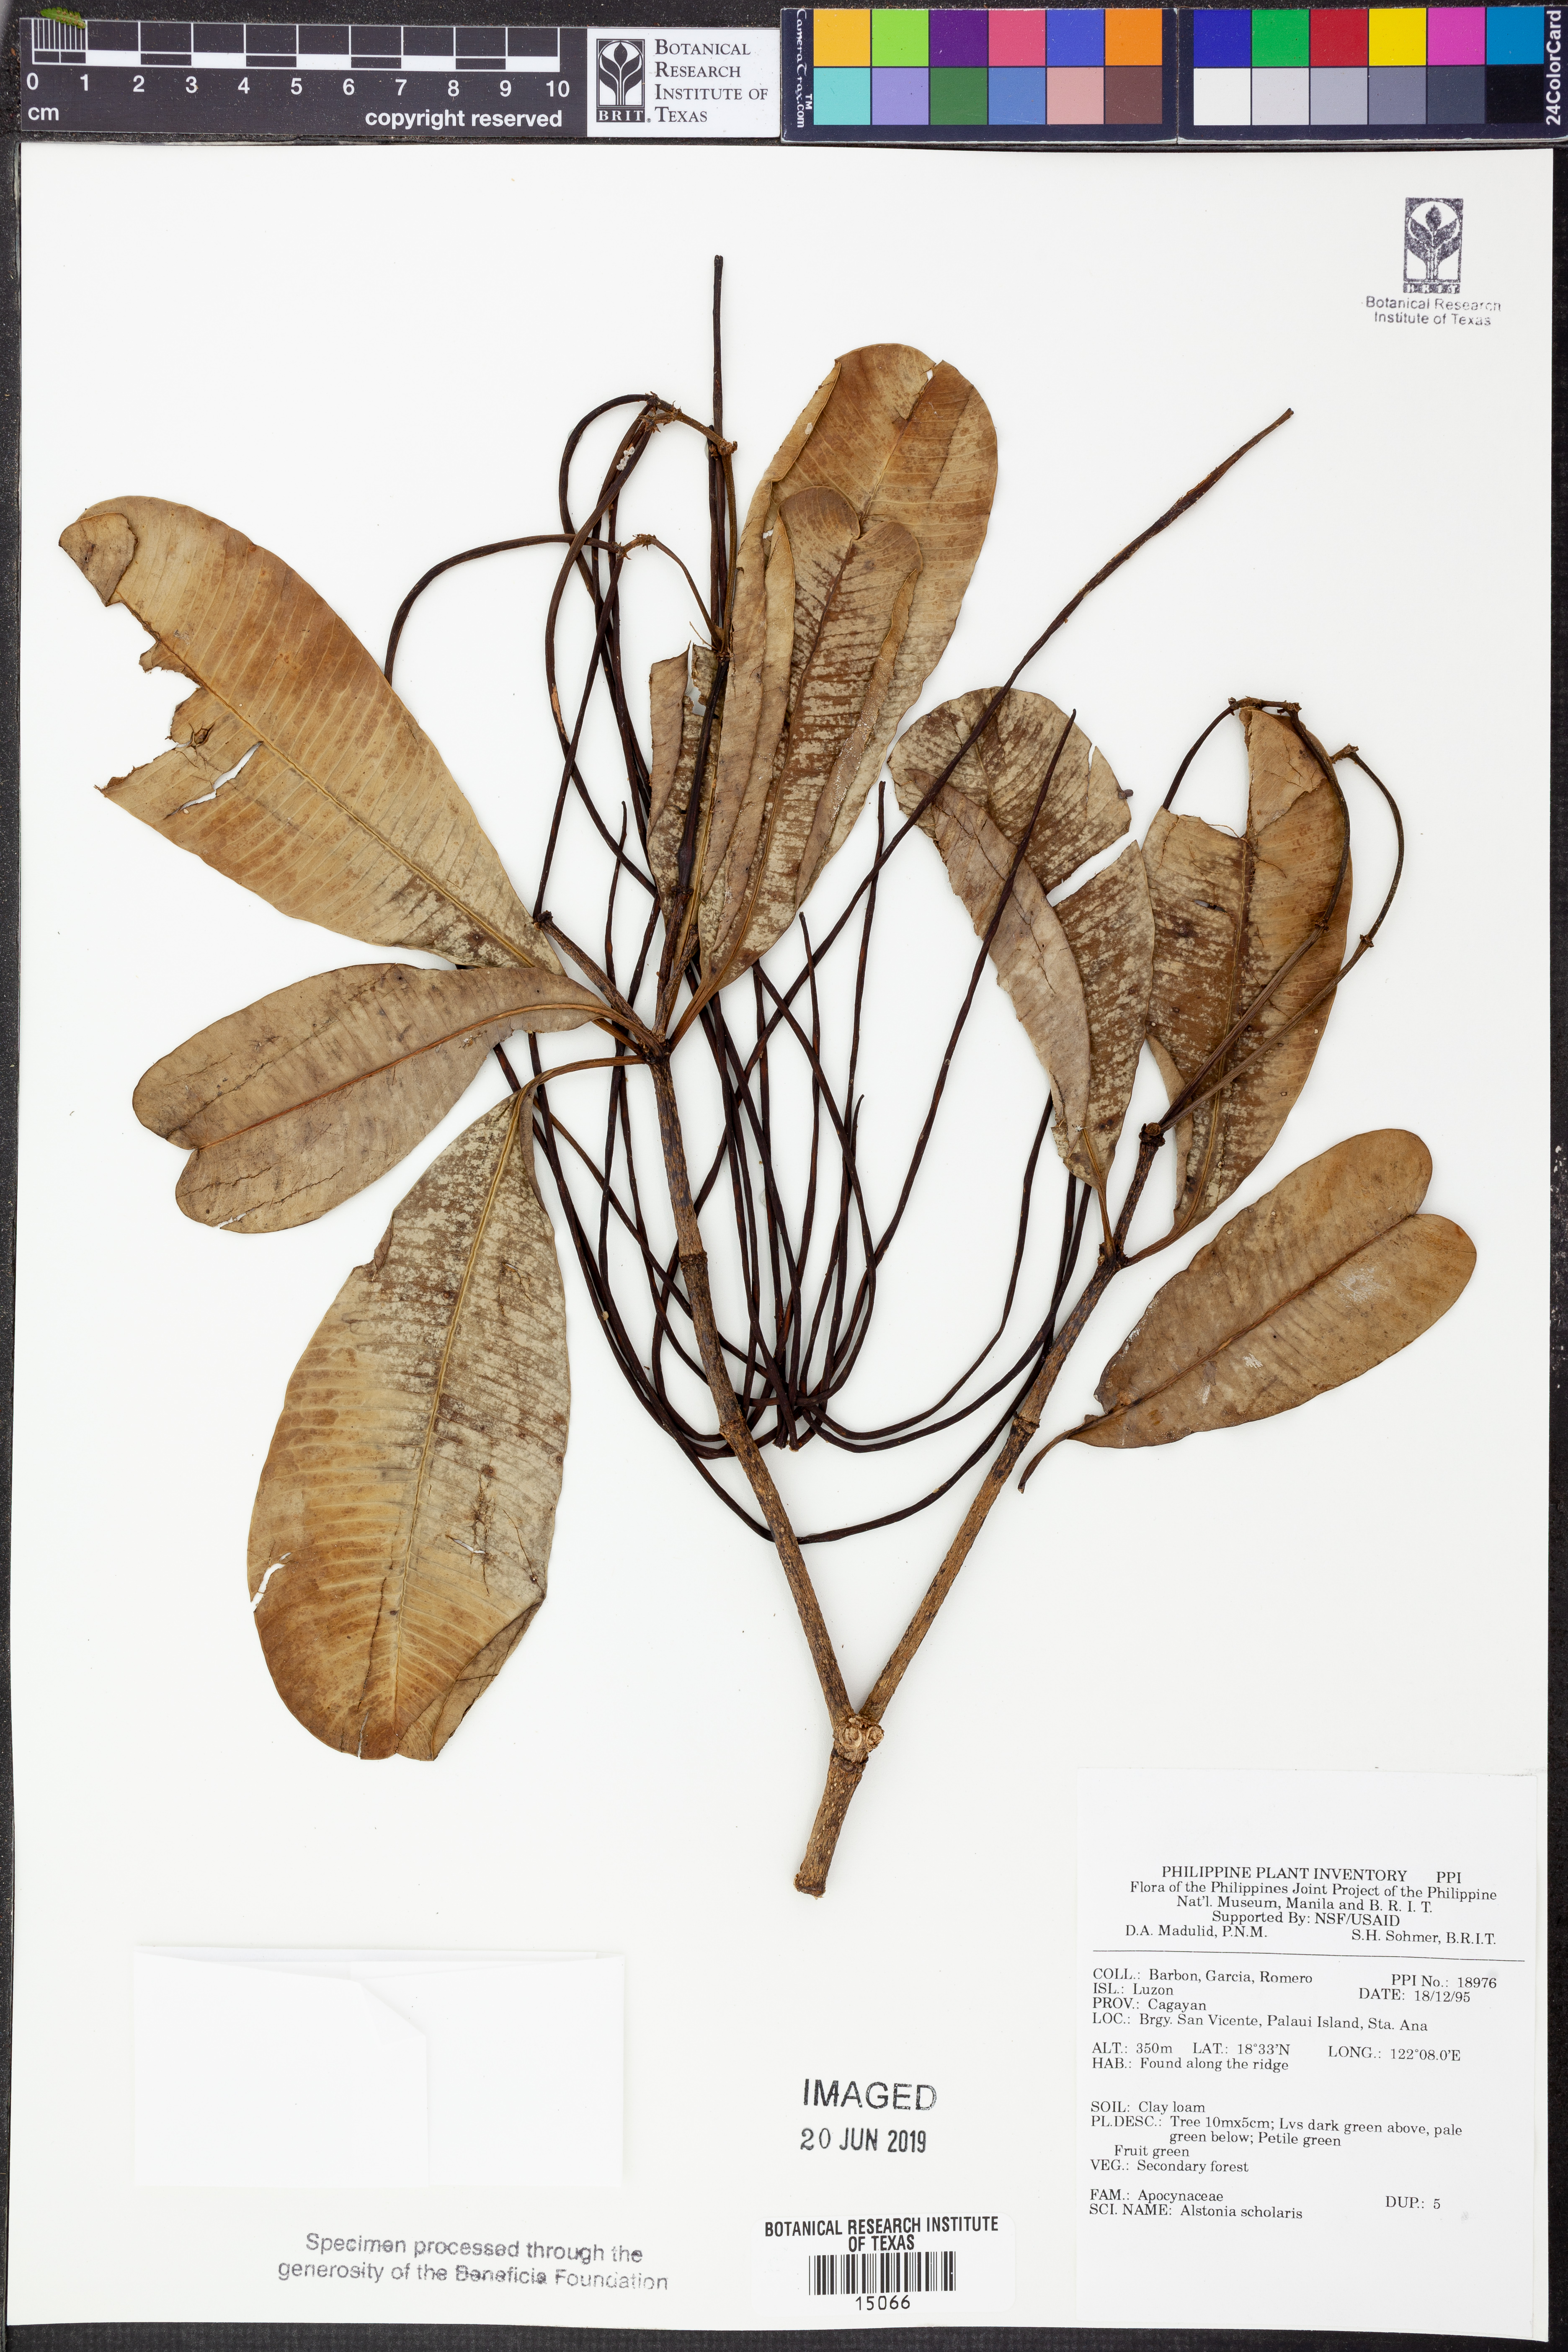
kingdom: Plantae
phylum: Tracheophyta
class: Magnoliopsida
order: Gentianales
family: Apocynaceae
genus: Alstonia
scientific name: Alstonia scholaris
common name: White cheesewood
